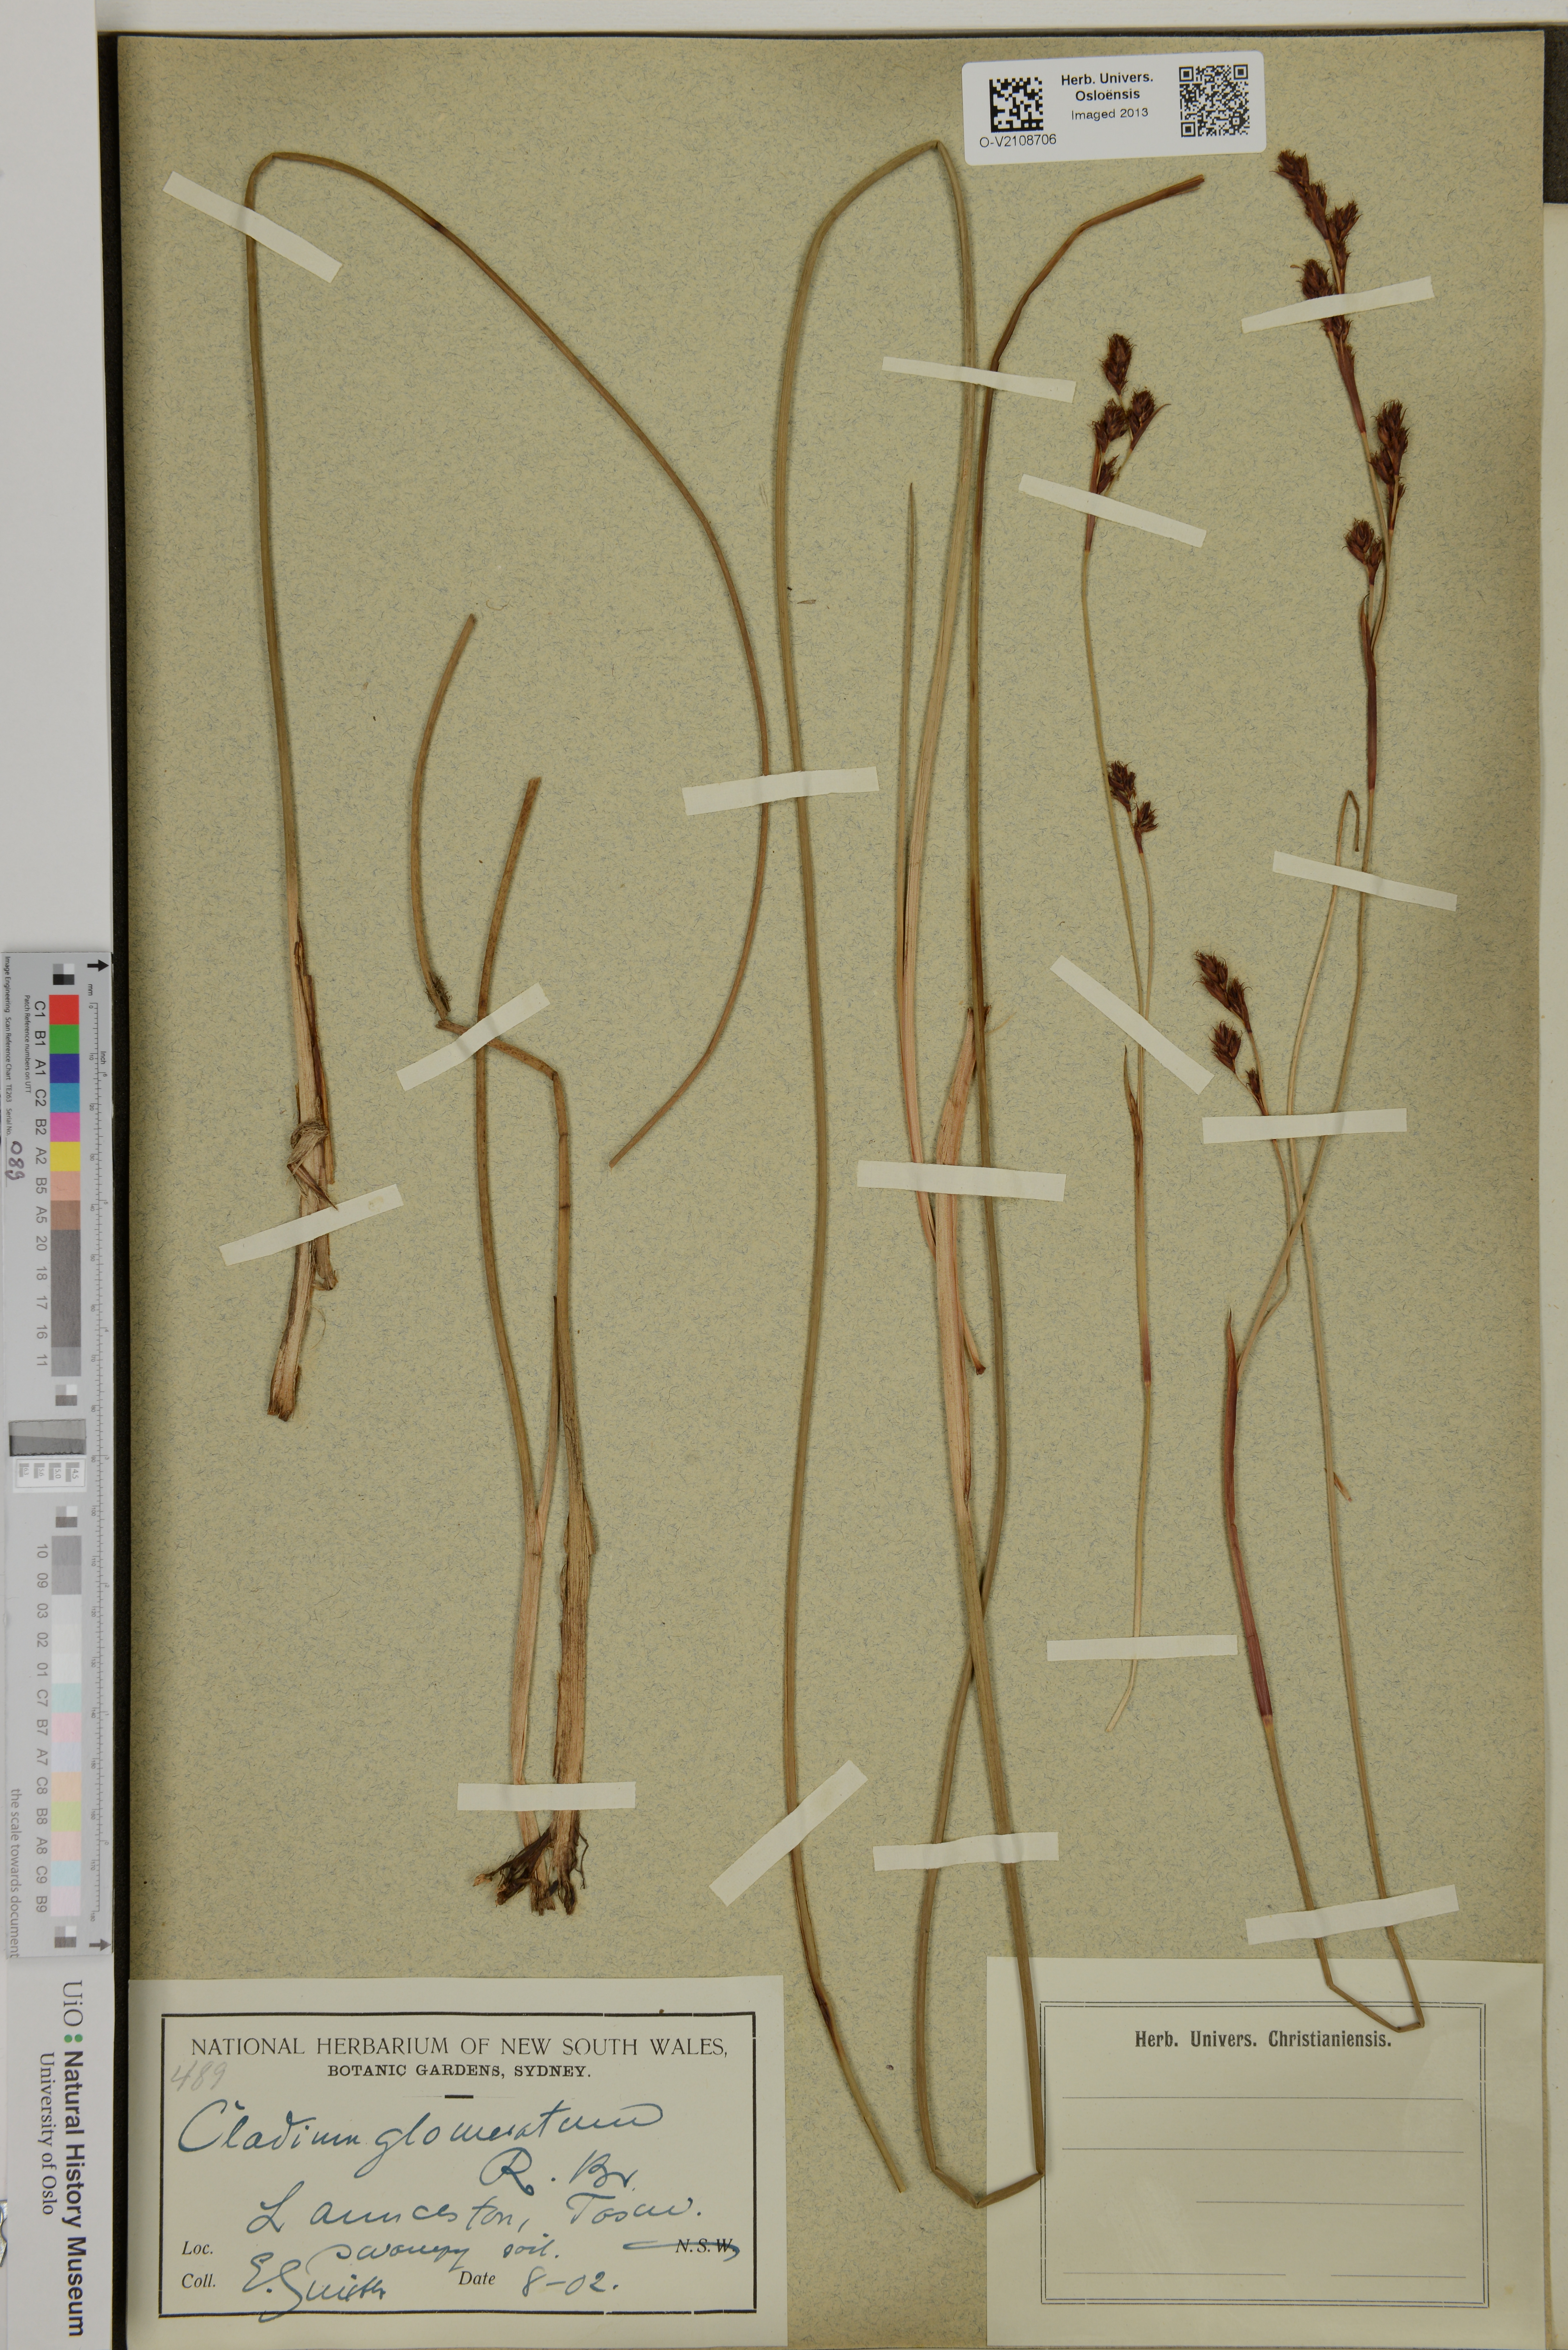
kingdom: Plantae
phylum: Tracheophyta
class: Liliopsida
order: Poales
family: Cyperaceae
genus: Machaerina
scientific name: Machaerina
